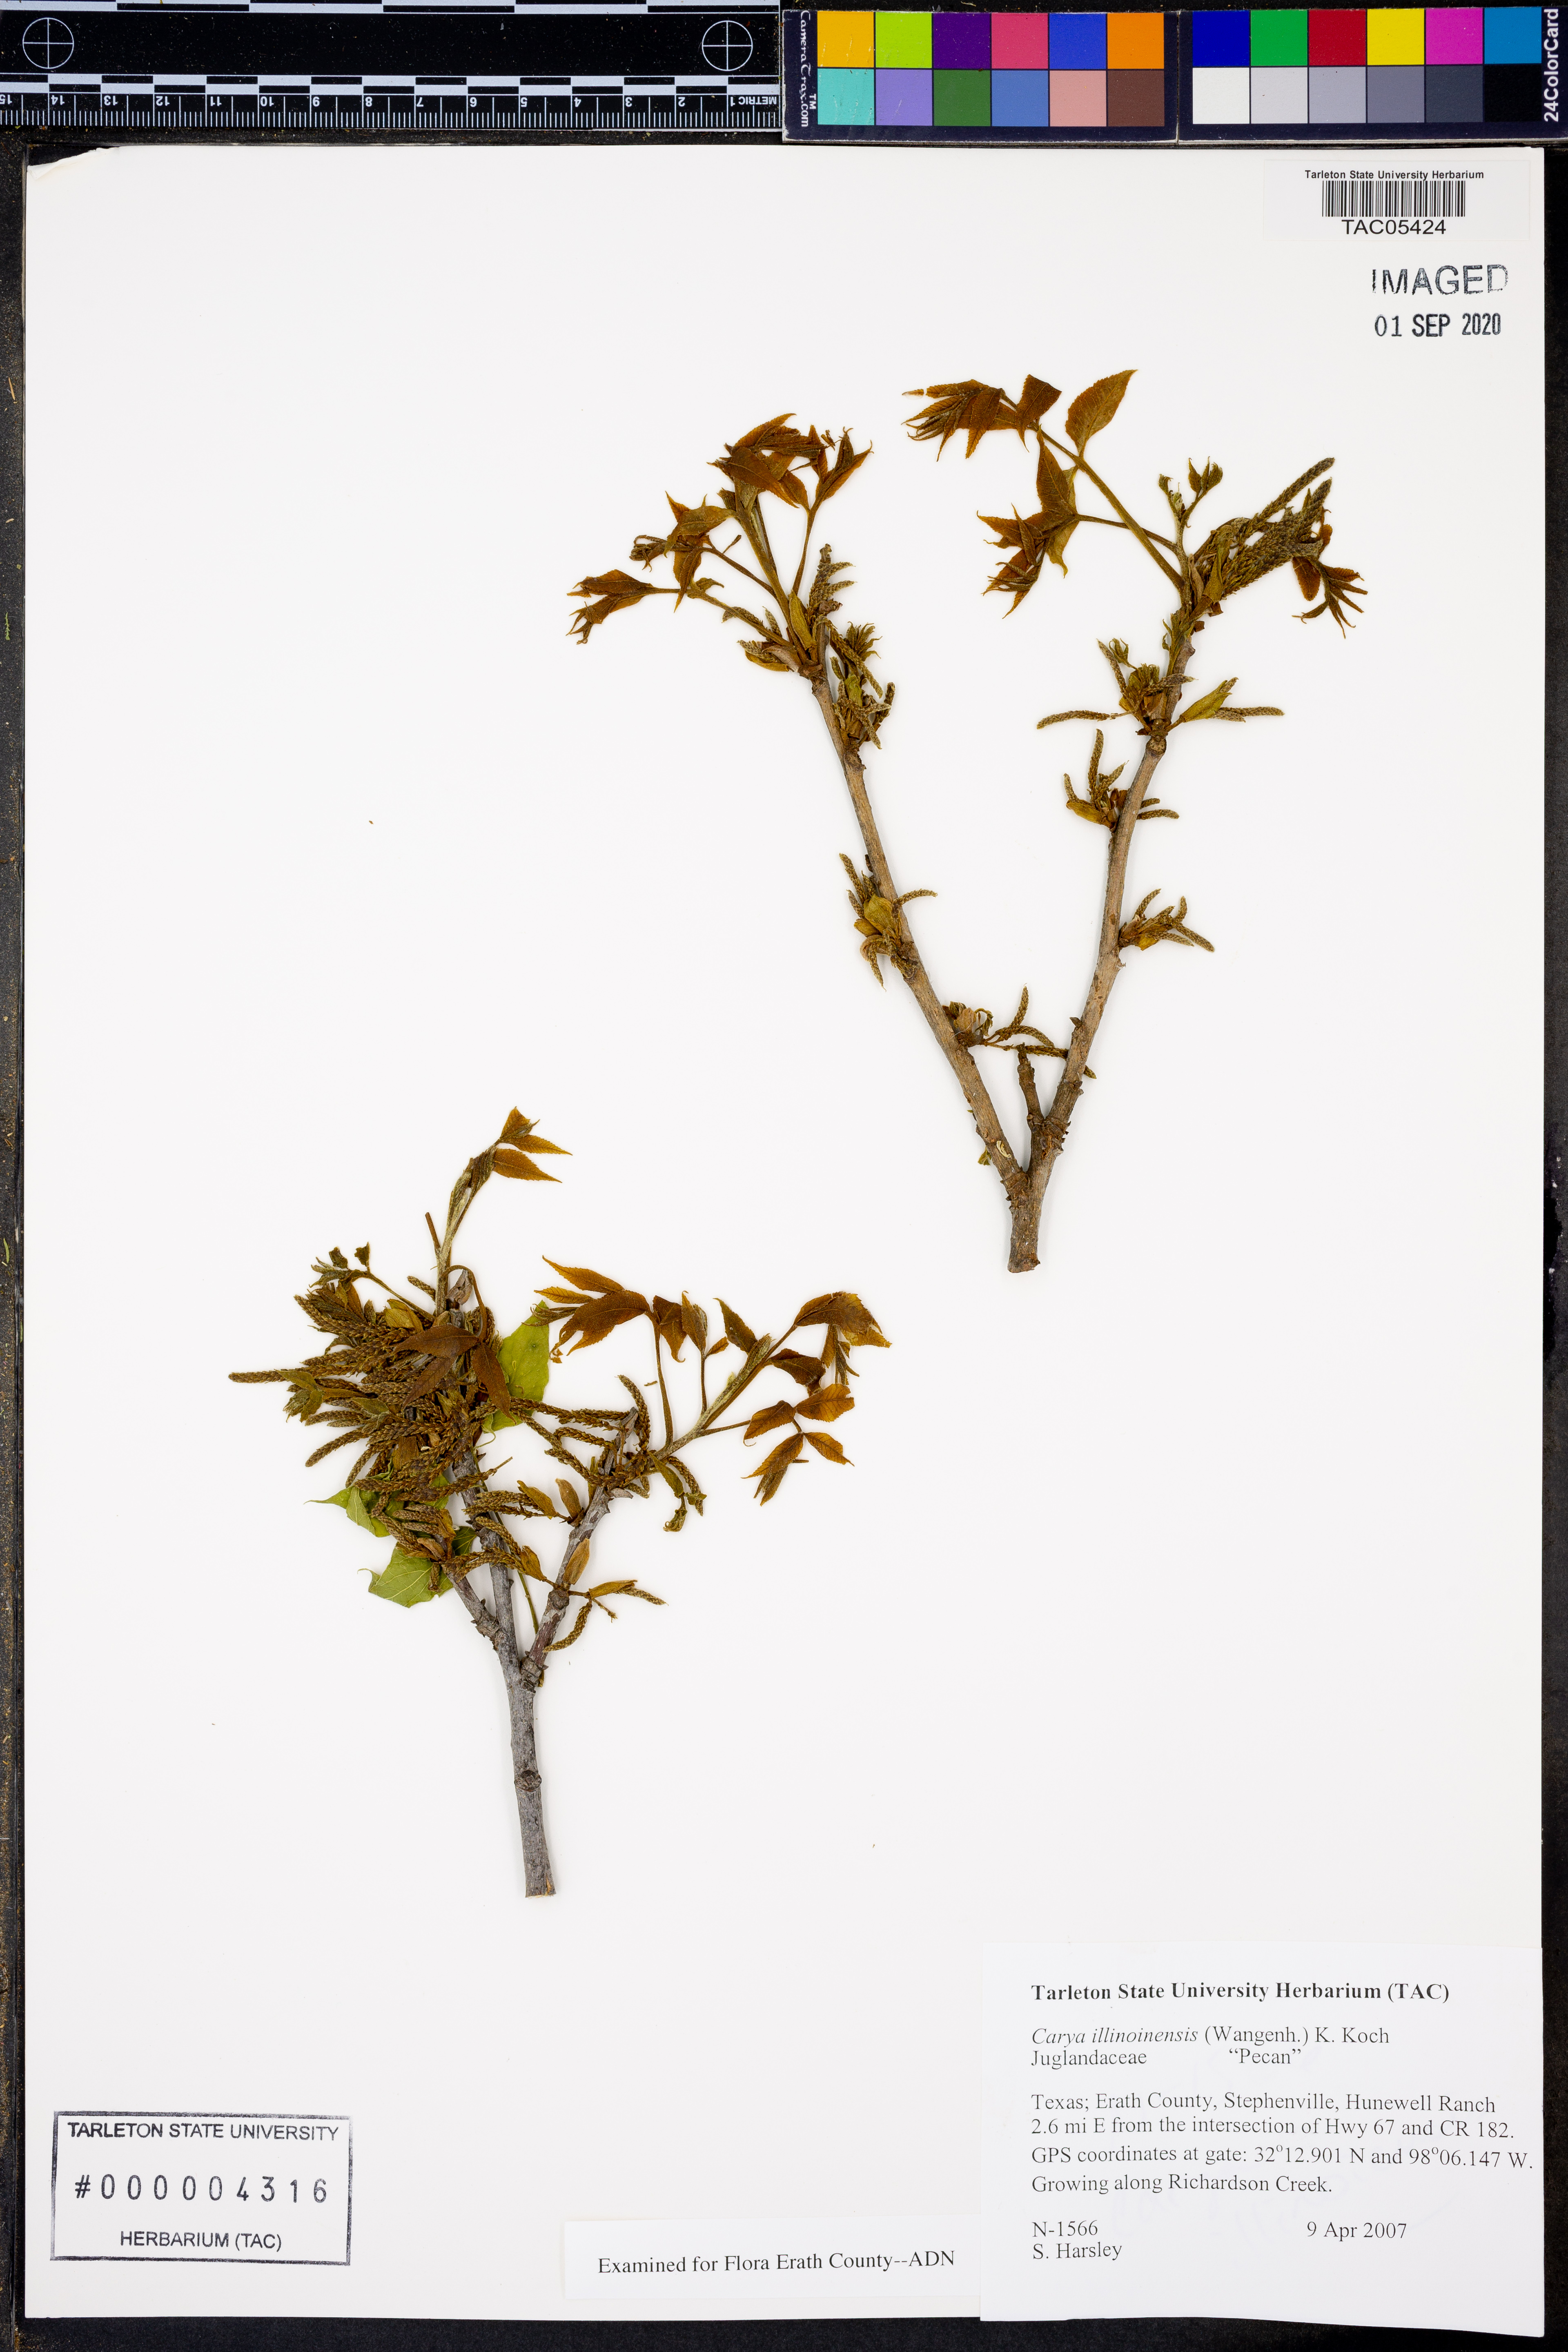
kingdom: Plantae
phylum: Tracheophyta
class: Magnoliopsida
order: Fagales
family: Juglandaceae
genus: Carya
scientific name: Carya illinoinensis
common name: Pecan
